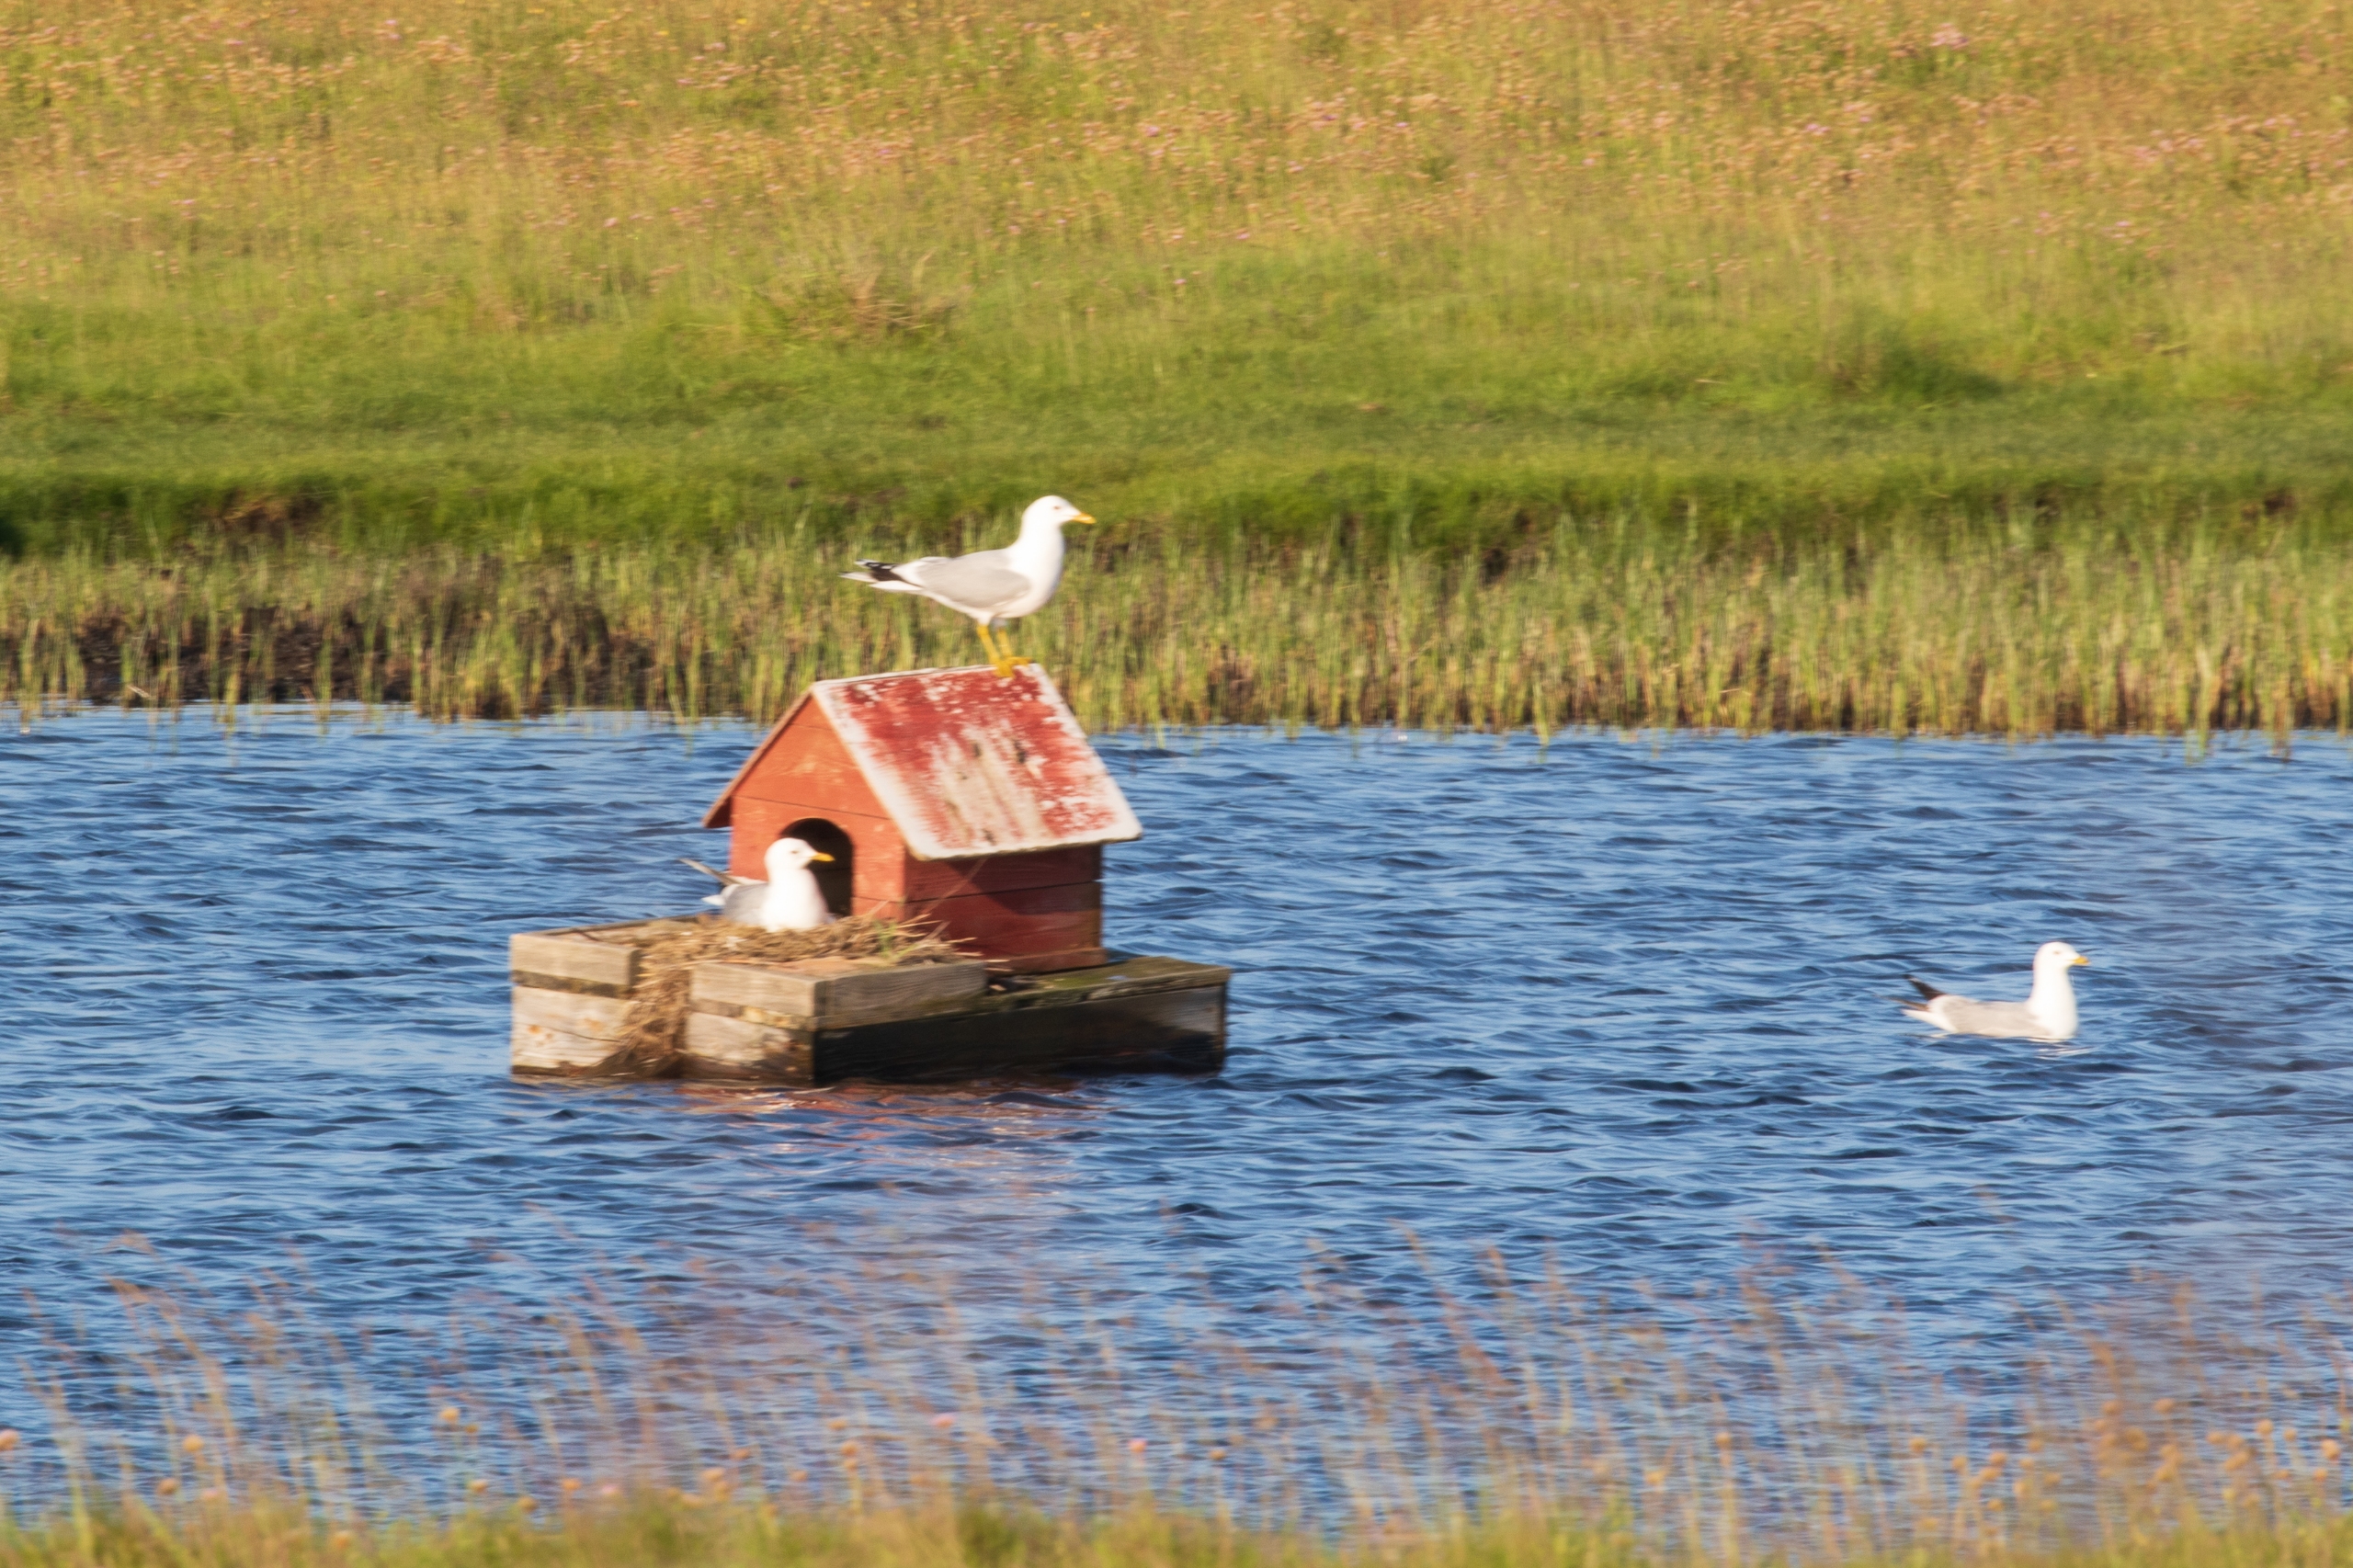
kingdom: Animalia
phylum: Chordata
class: Aves
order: Charadriiformes
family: Laridae
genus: Larus
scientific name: Larus canus
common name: Stormmåge
